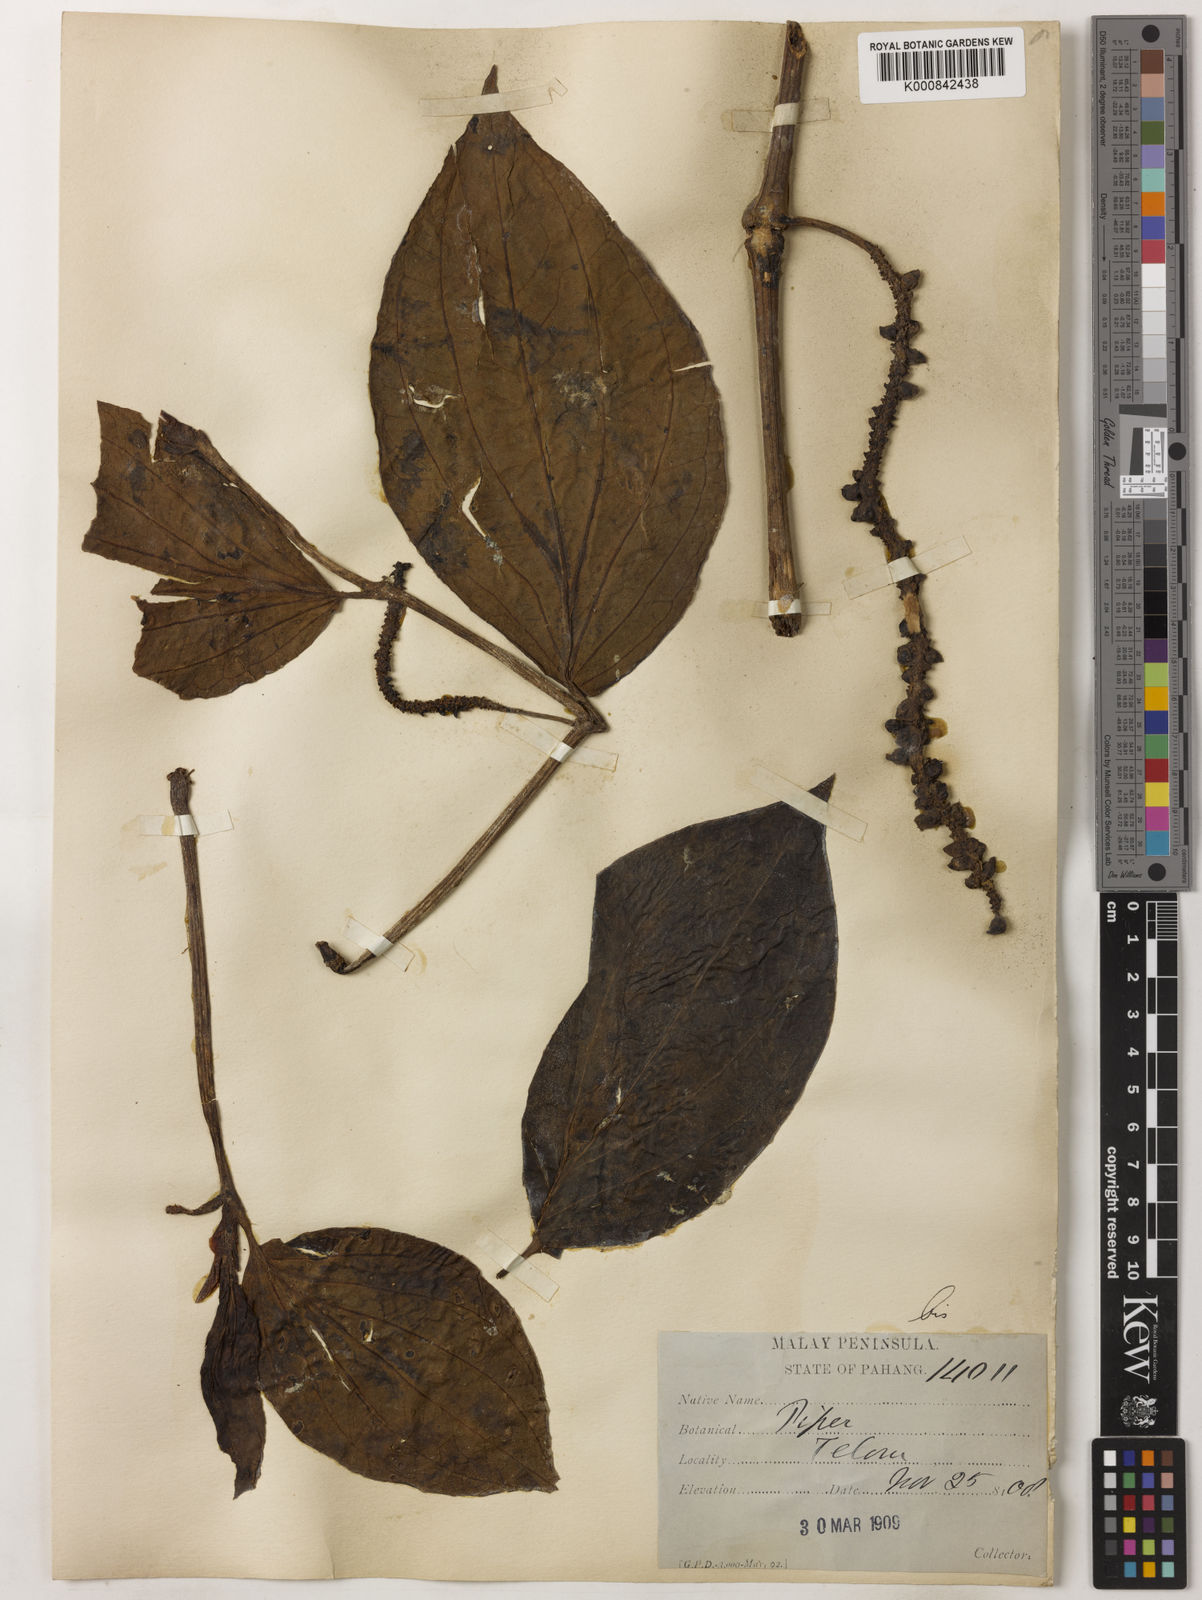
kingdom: Plantae
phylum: Tracheophyta
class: Magnoliopsida
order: Piperales
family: Piperaceae
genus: Piper
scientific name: Piper quinqueangulatum
